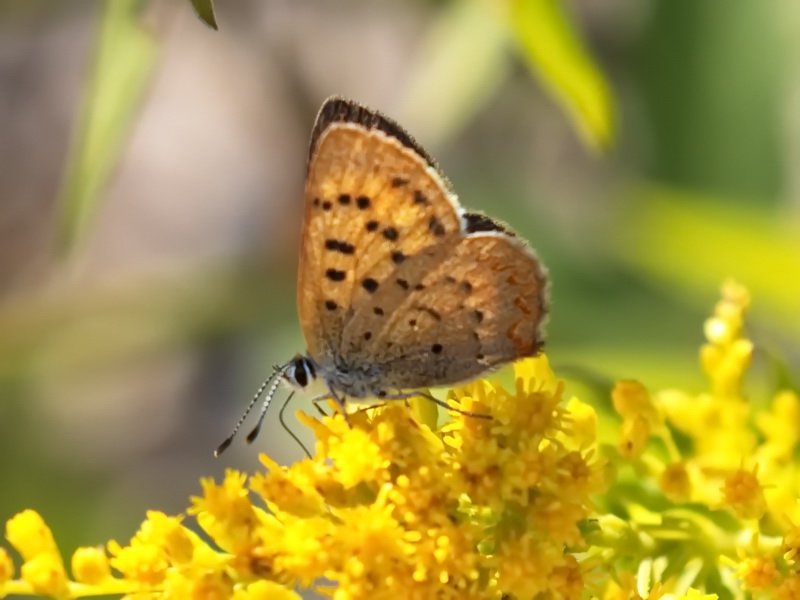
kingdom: Animalia
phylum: Arthropoda
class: Insecta
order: Lepidoptera
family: Lycaenidae
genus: Epidemia
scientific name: Epidemia dorcas
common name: Dorcas Copper
